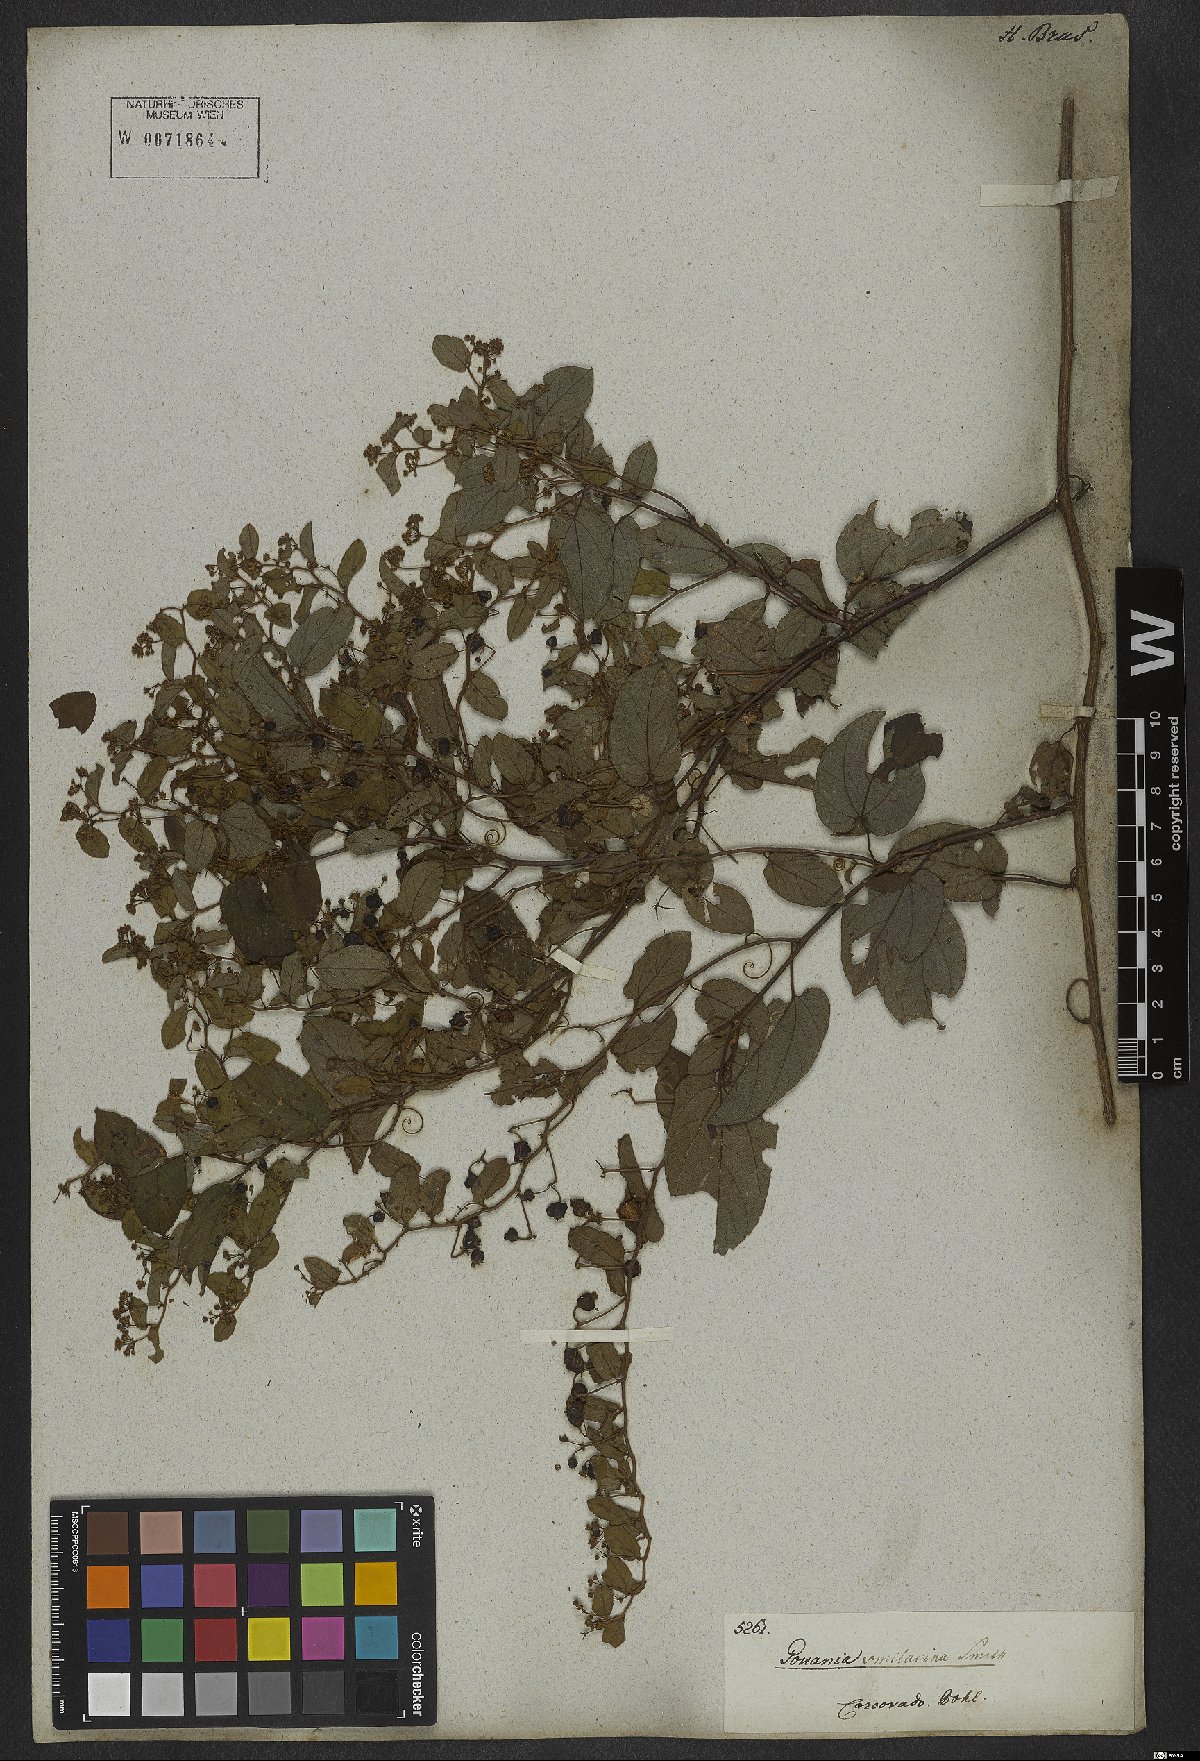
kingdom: Plantae
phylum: Tracheophyta
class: Magnoliopsida
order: Rosales
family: Rhamnaceae
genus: Reissekia
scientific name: Reissekia smilacina
